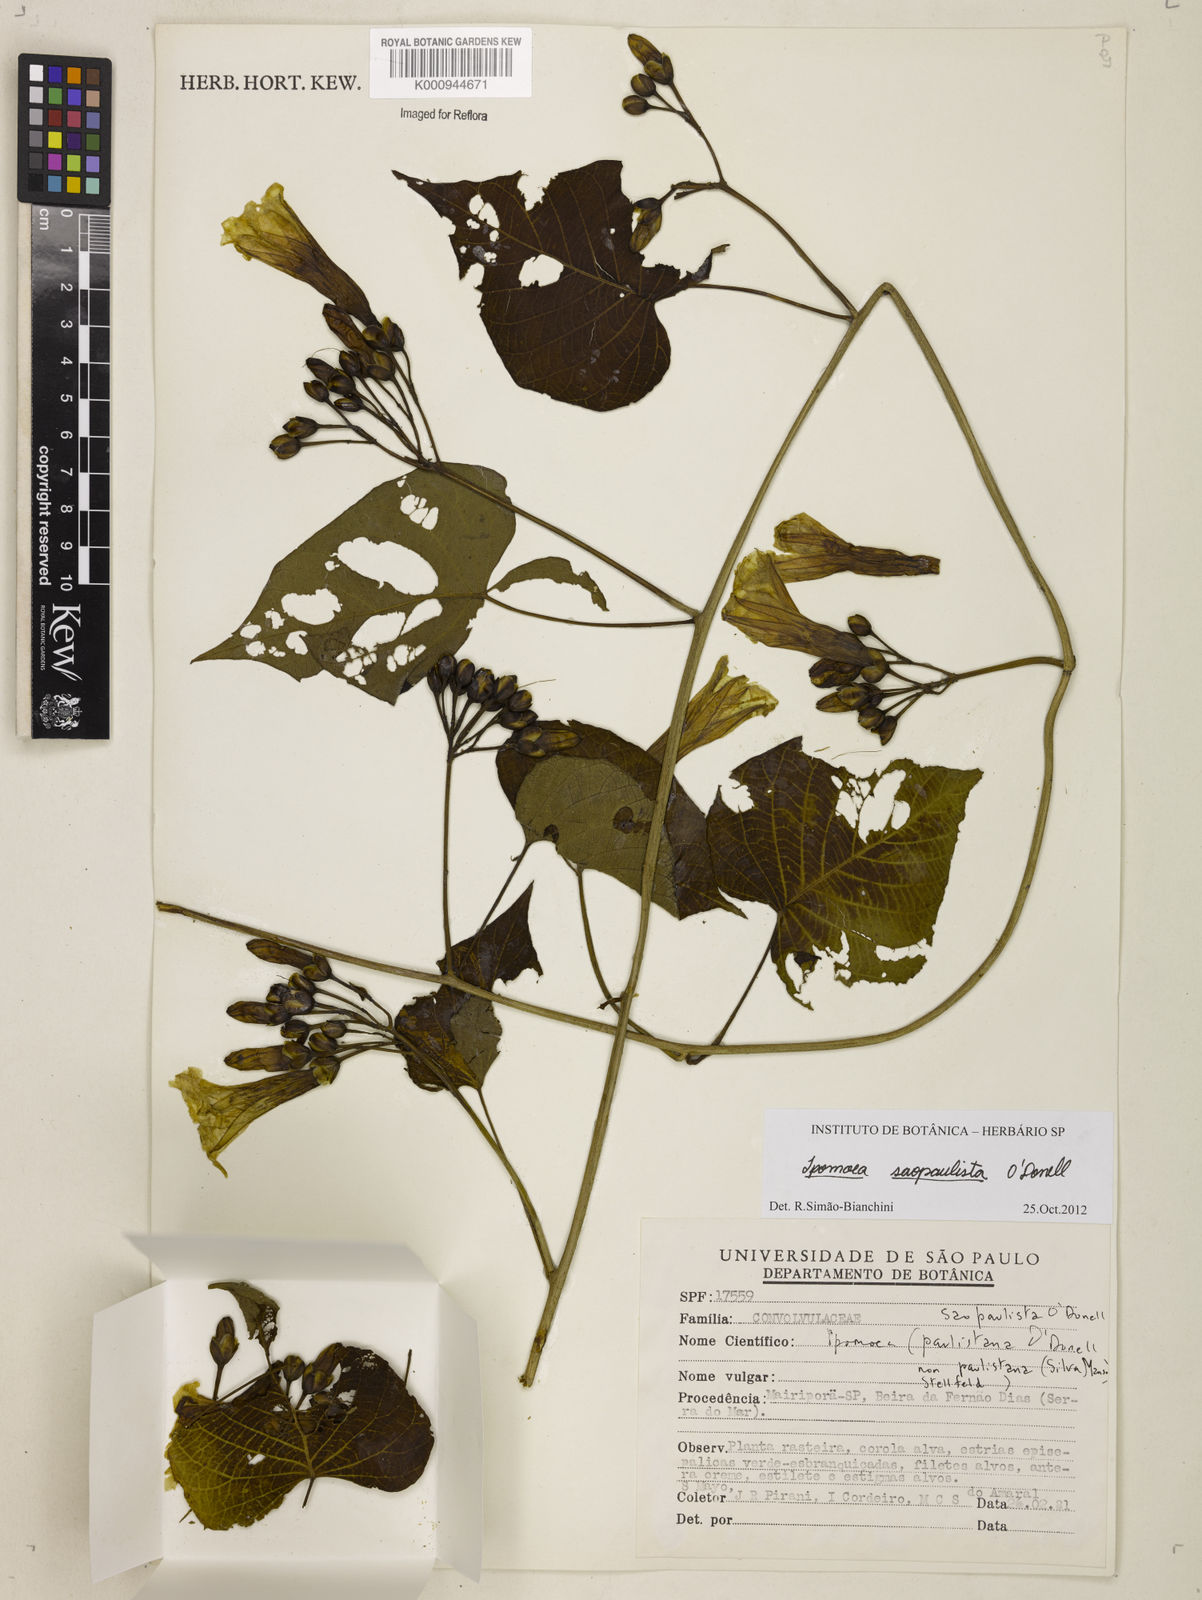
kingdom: Plantae
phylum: Tracheophyta
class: Magnoliopsida
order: Solanales
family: Convolvulaceae
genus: Ipomoea
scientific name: Ipomoea
